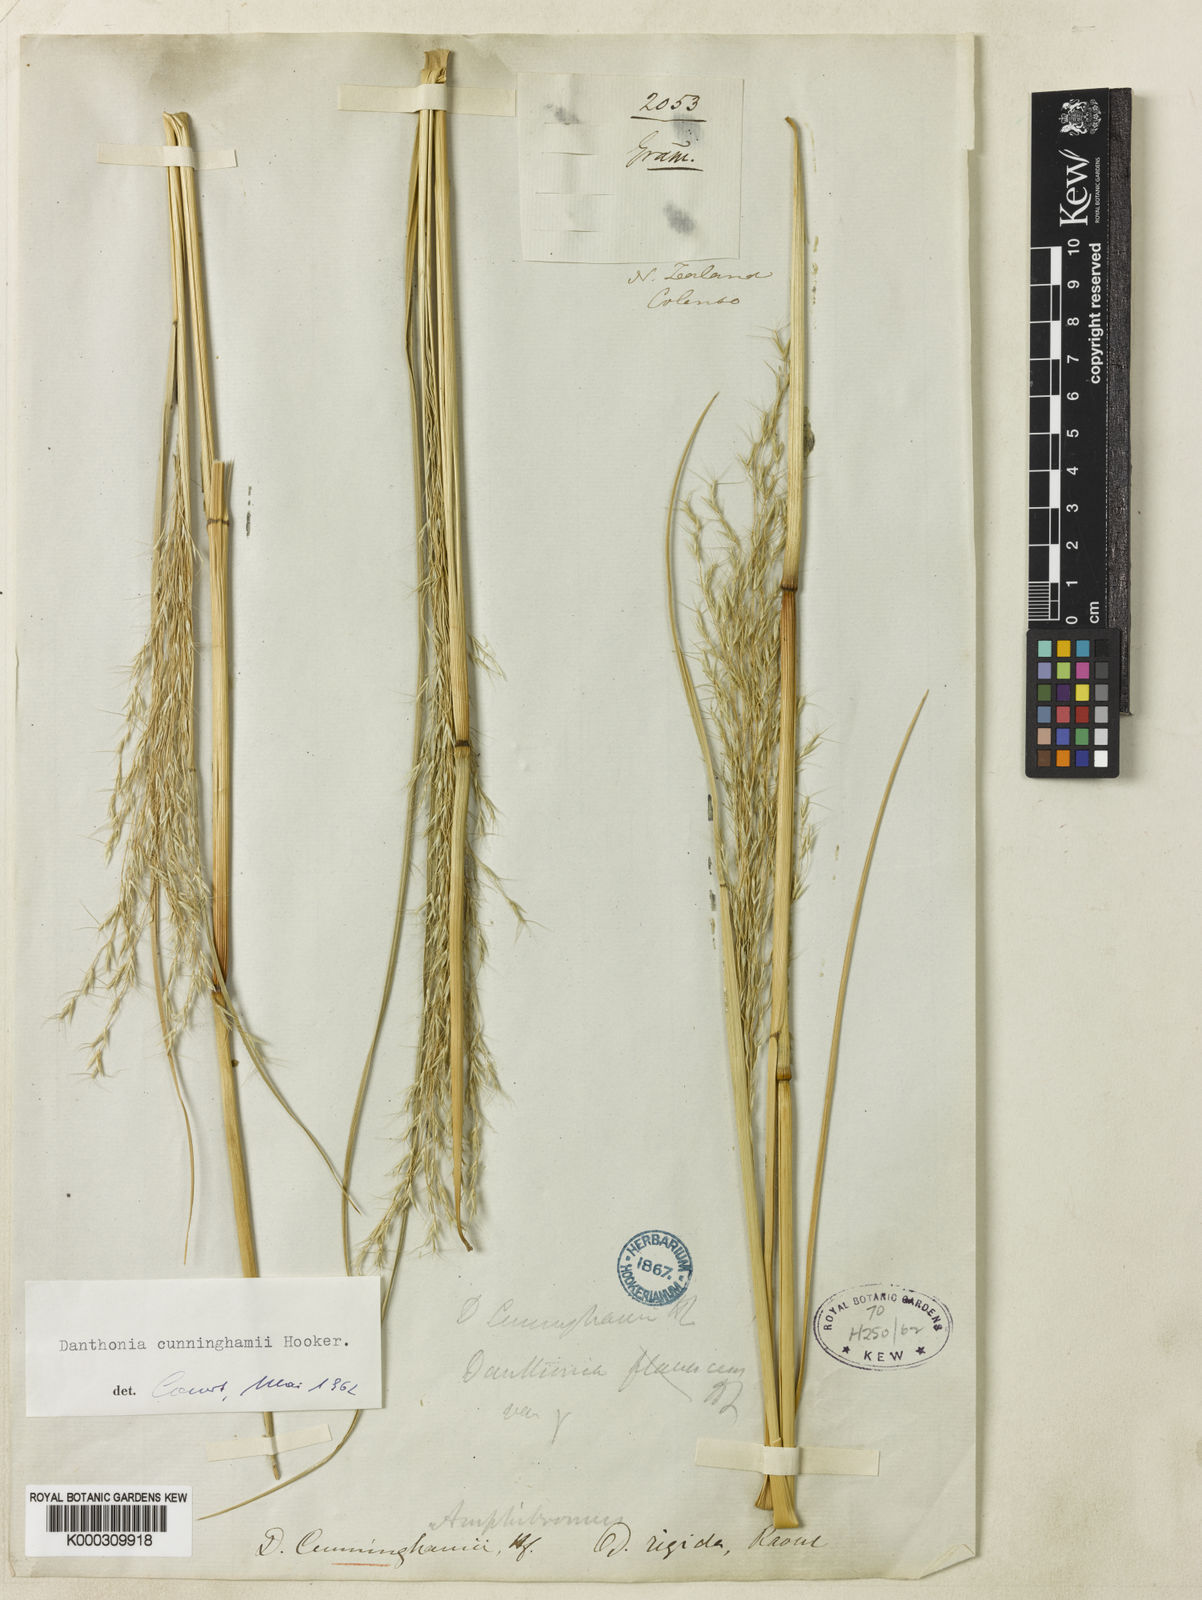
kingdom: Plantae
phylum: Tracheophyta
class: Liliopsida
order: Poales
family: Poaceae
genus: Chionochloa
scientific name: Chionochloa conspicua
